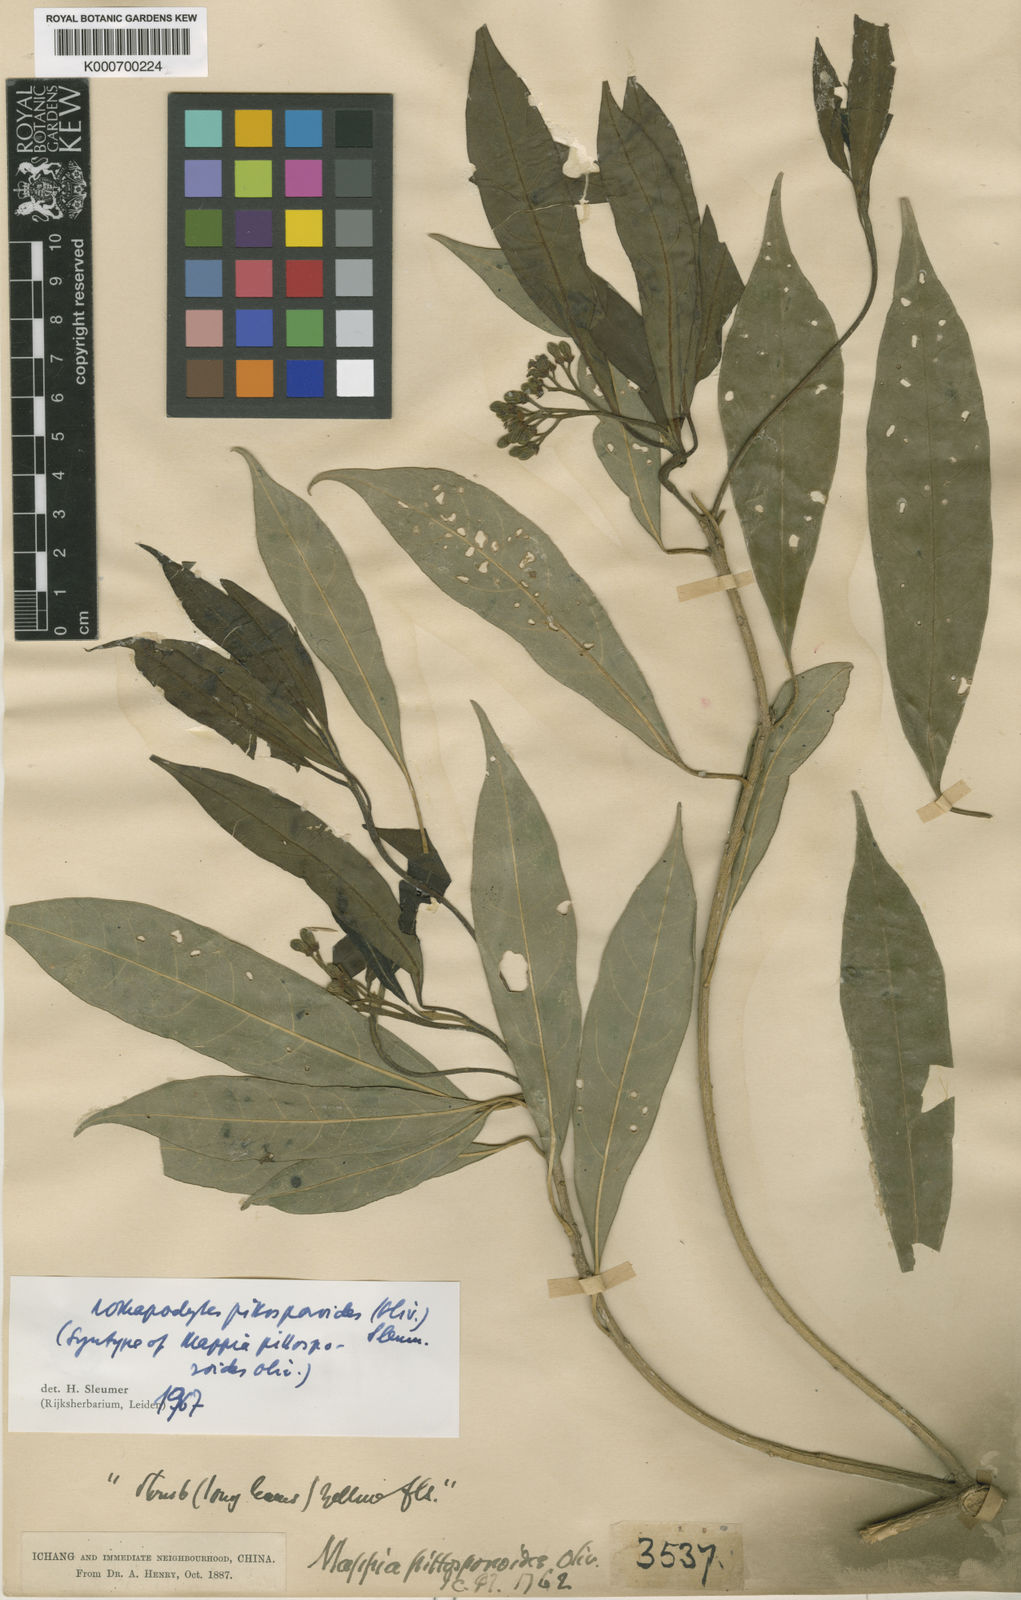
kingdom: Plantae
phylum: Tracheophyta
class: Magnoliopsida
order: Icacinales
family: Icacinaceae
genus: Nothapodytes
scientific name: Nothapodytes pittosporoides
